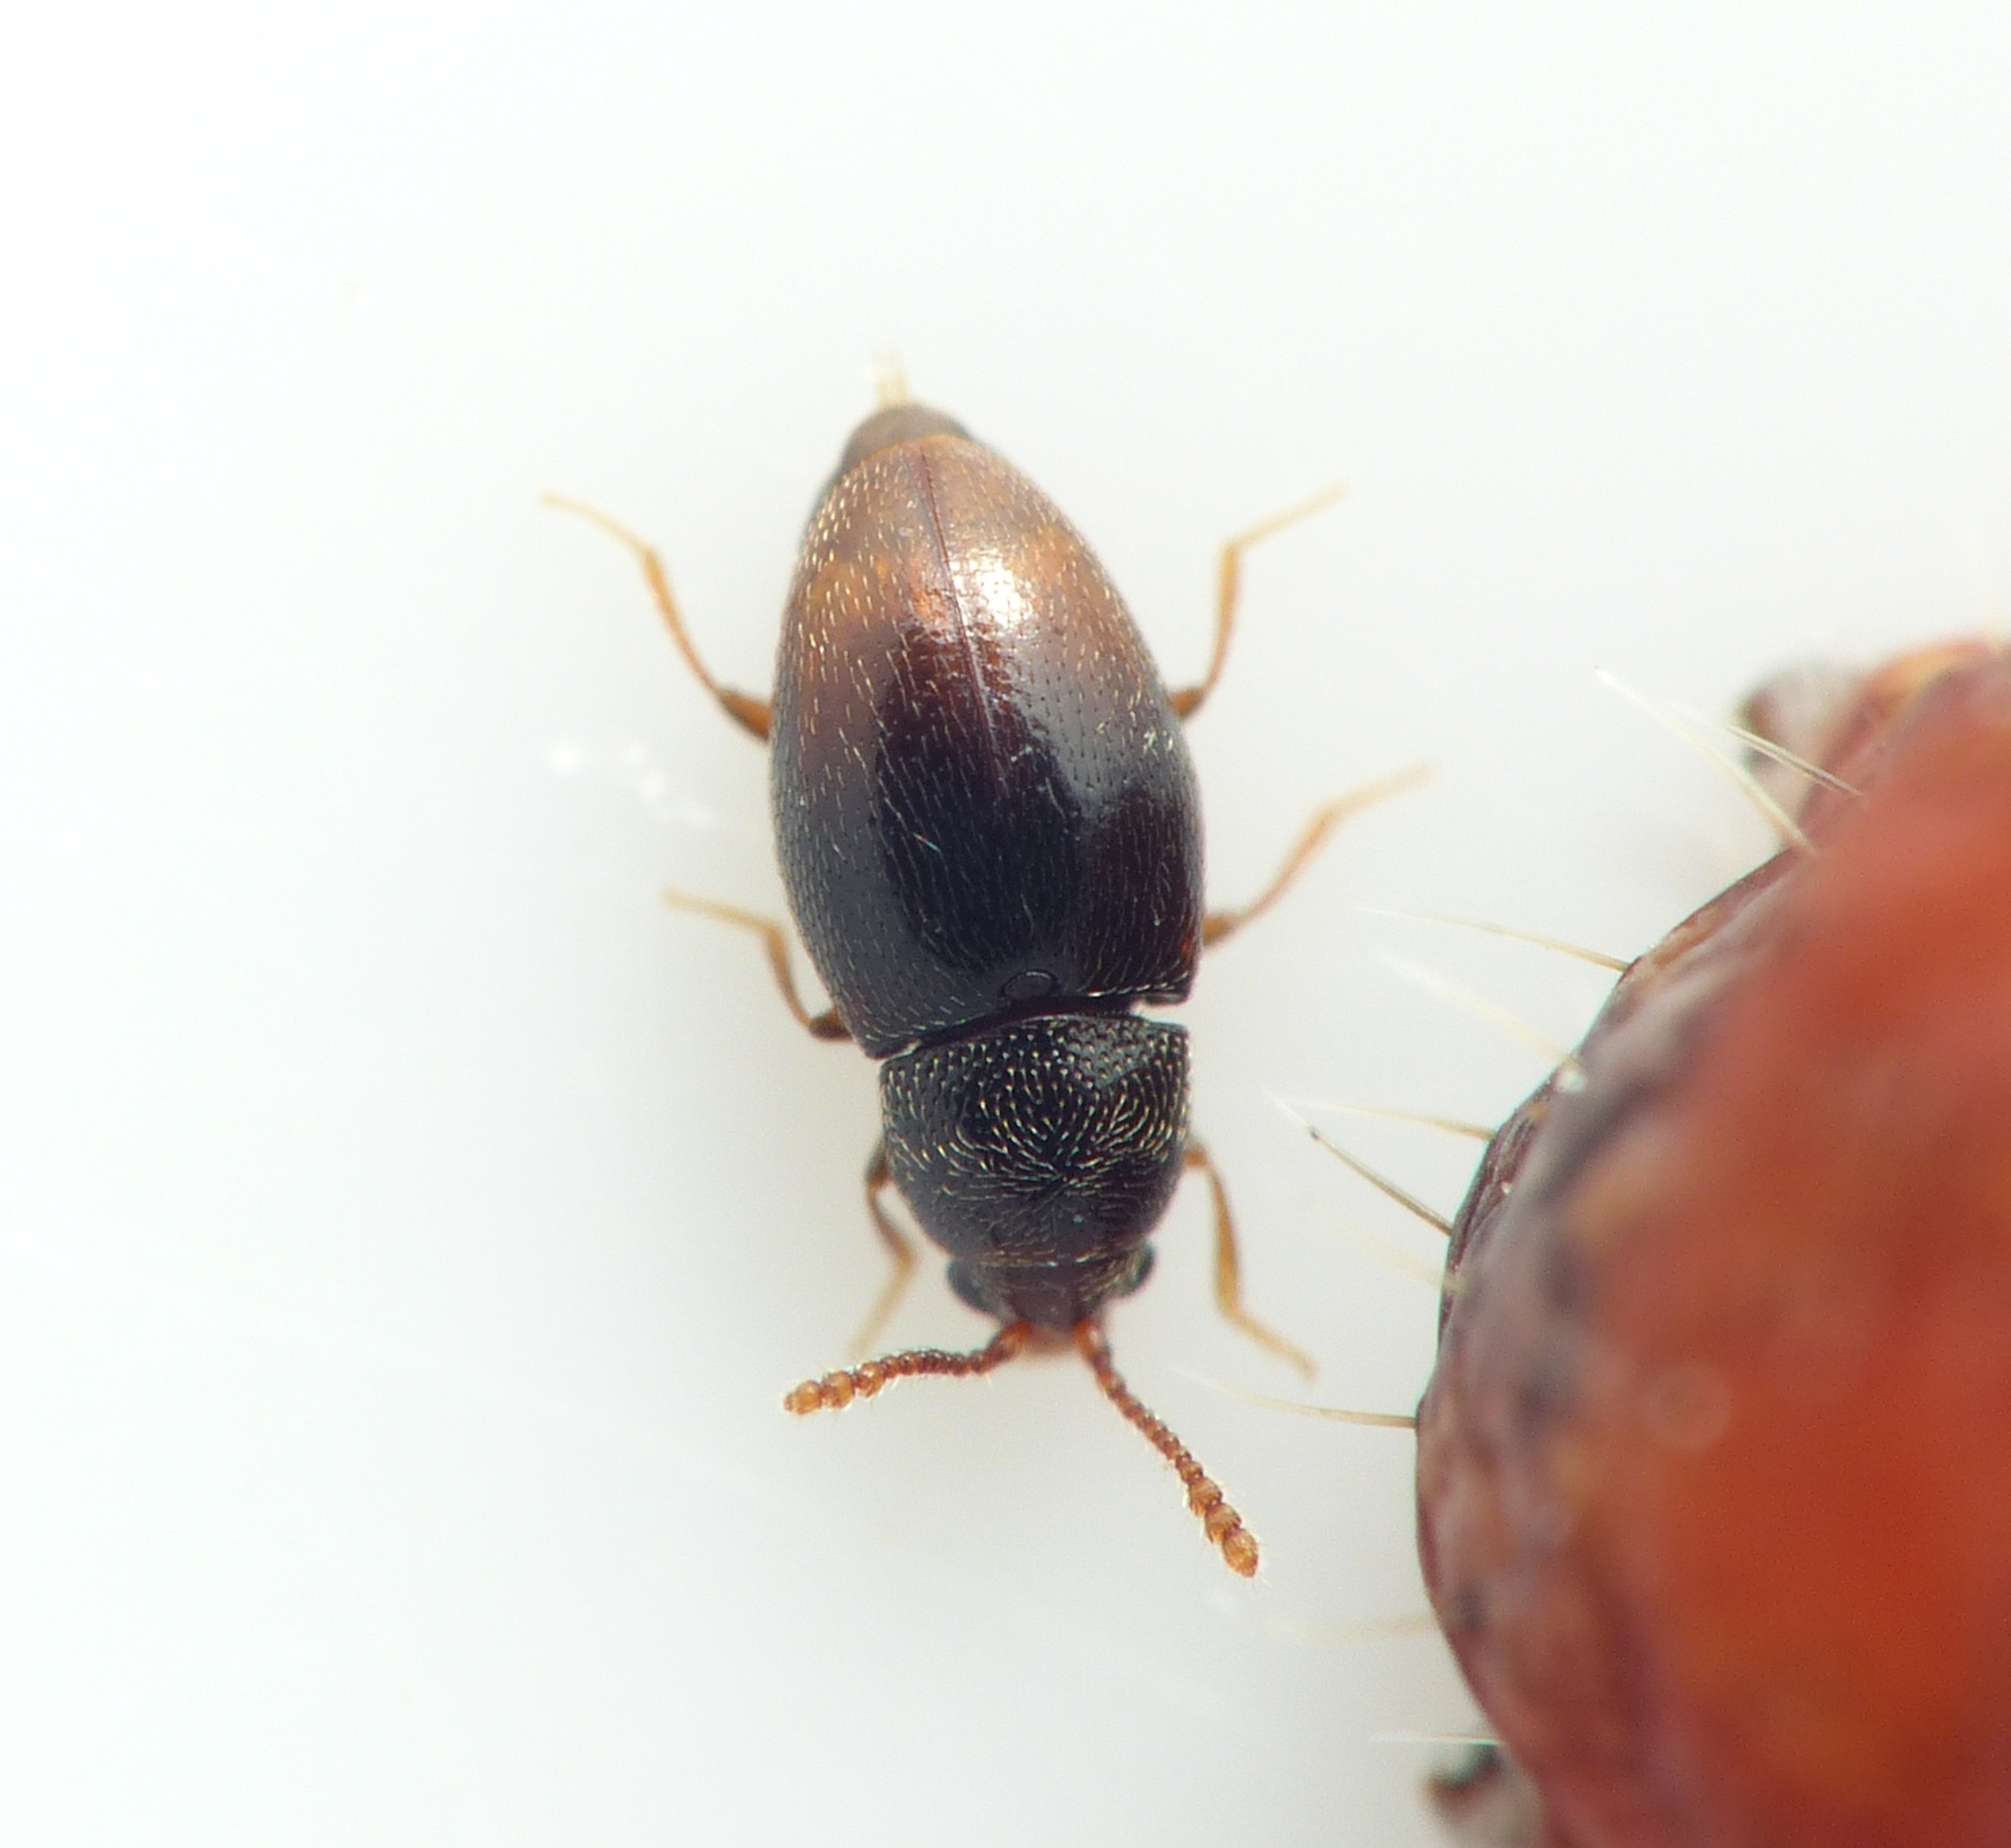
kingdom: Animalia
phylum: Arthropoda
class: Insecta
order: Coleoptera
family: Cryptophagidae
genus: Atomaria
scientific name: Atomaria testacea
